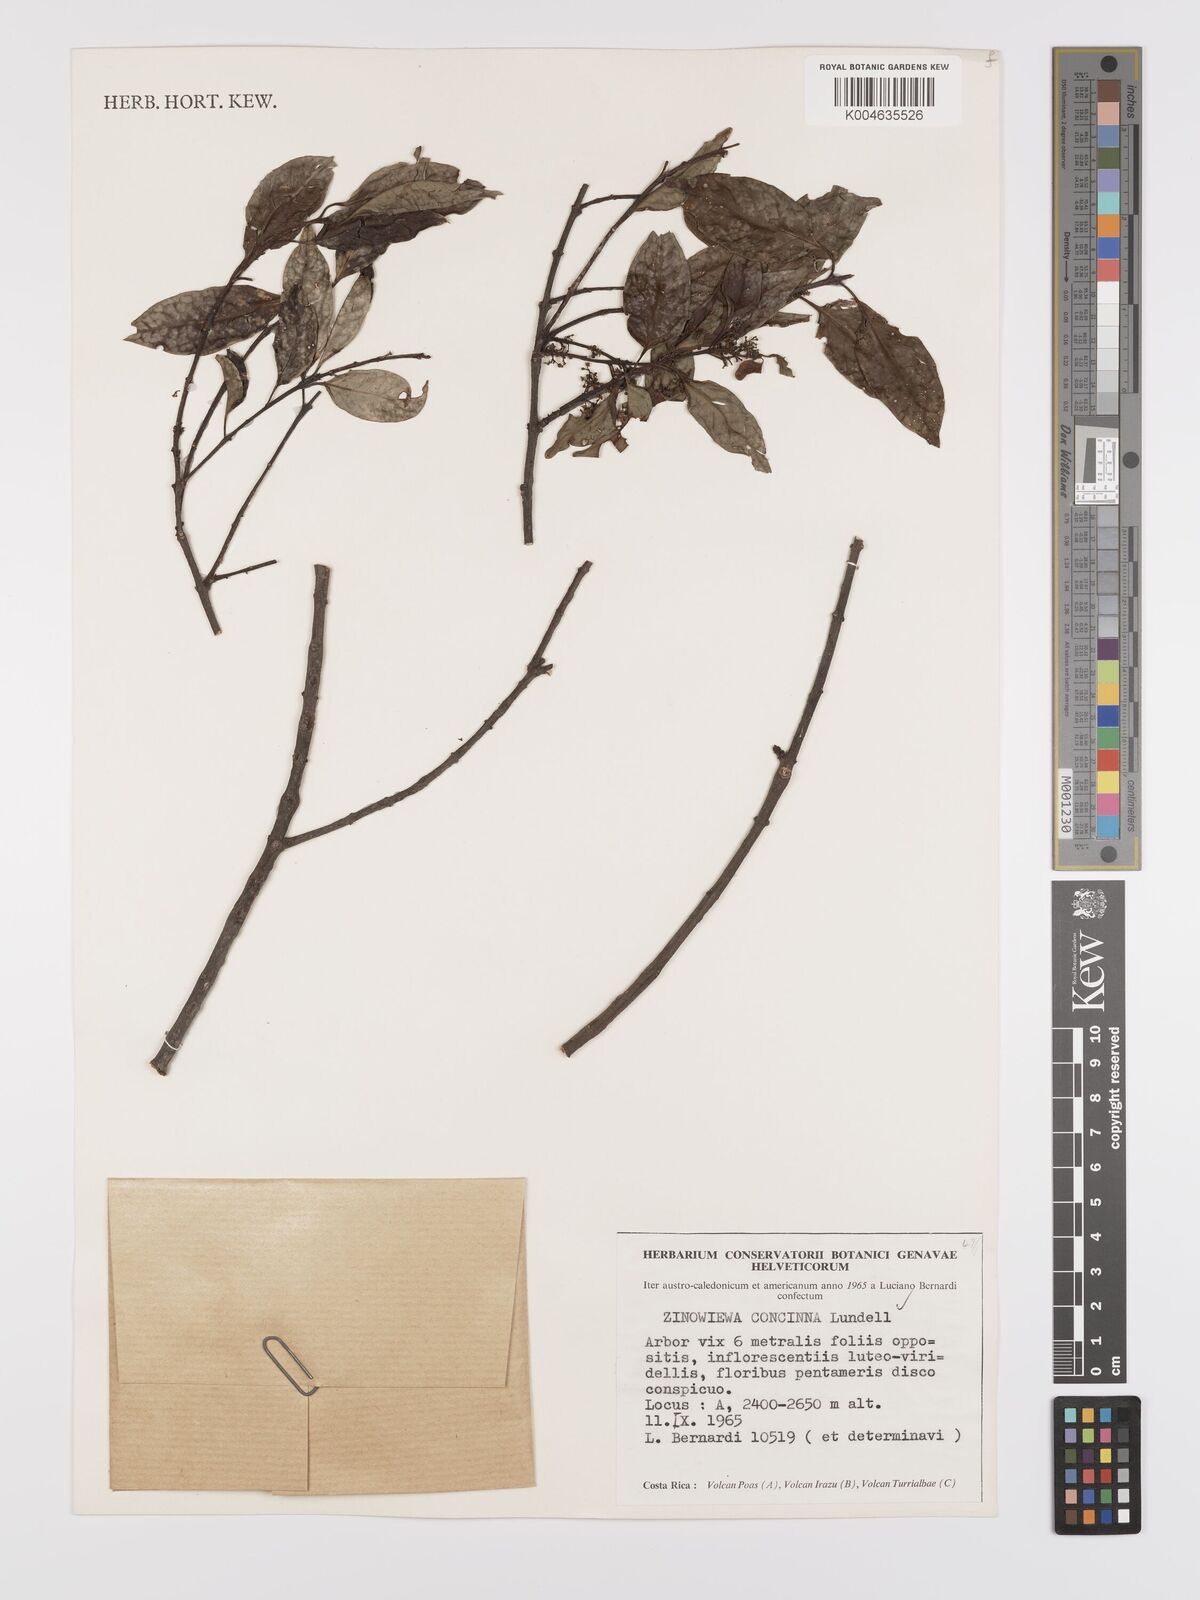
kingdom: Plantae
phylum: Tracheophyta
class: Magnoliopsida
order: Celastrales
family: Celastraceae
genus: Zinowiewia
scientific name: Zinowiewia concinna
